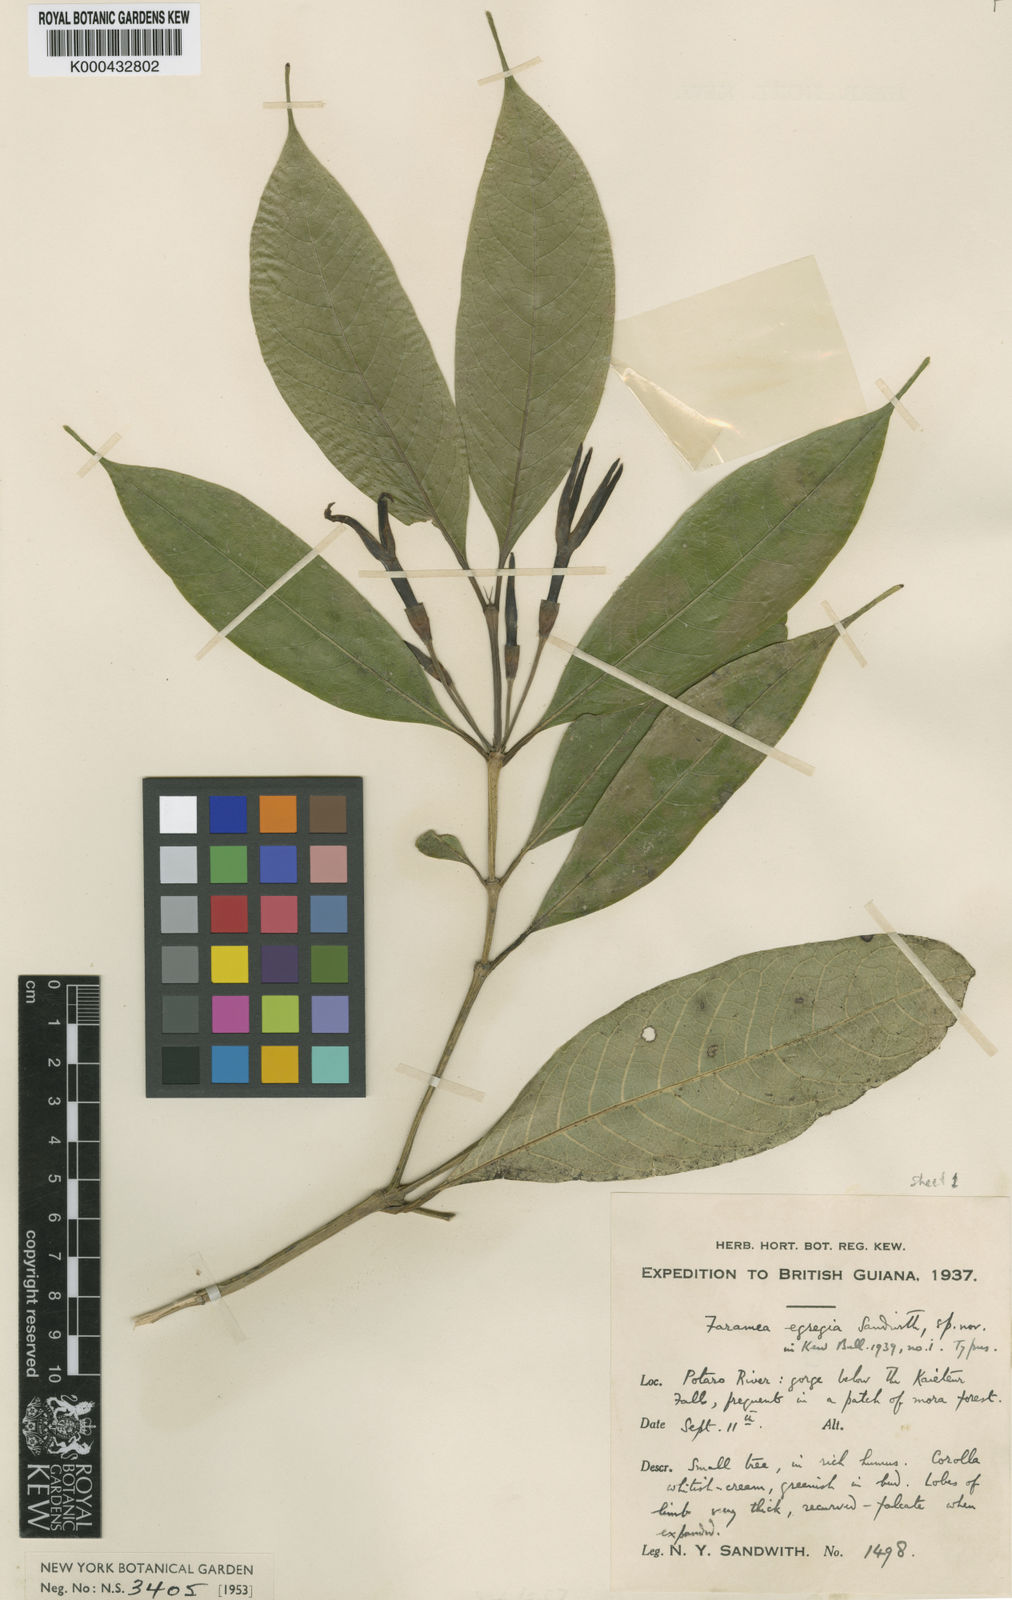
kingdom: Plantae
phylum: Tracheophyta
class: Magnoliopsida
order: Gentianales
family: Rubiaceae
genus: Faramea
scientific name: Faramea egregia
